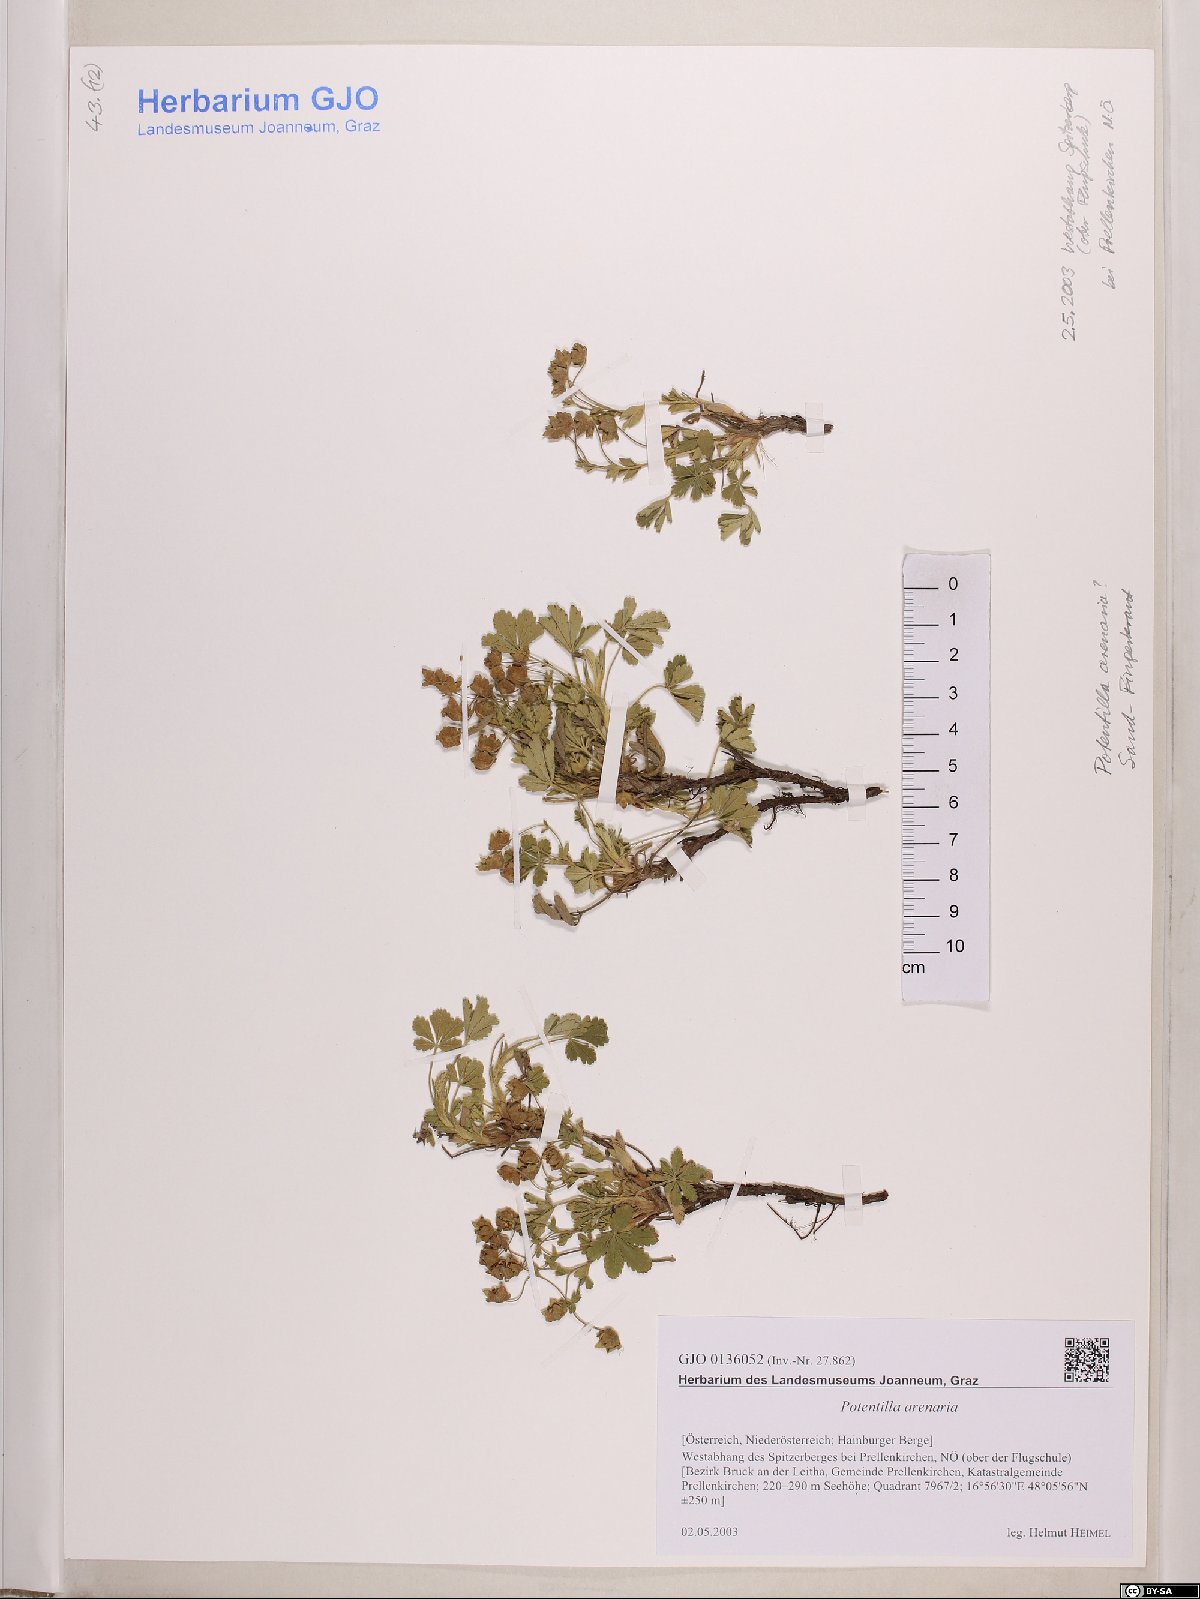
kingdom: Plantae
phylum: Tracheophyta
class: Magnoliopsida
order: Rosales
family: Rosaceae
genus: Potentilla
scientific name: Potentilla cinerea
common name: Ashy cinquefoil
